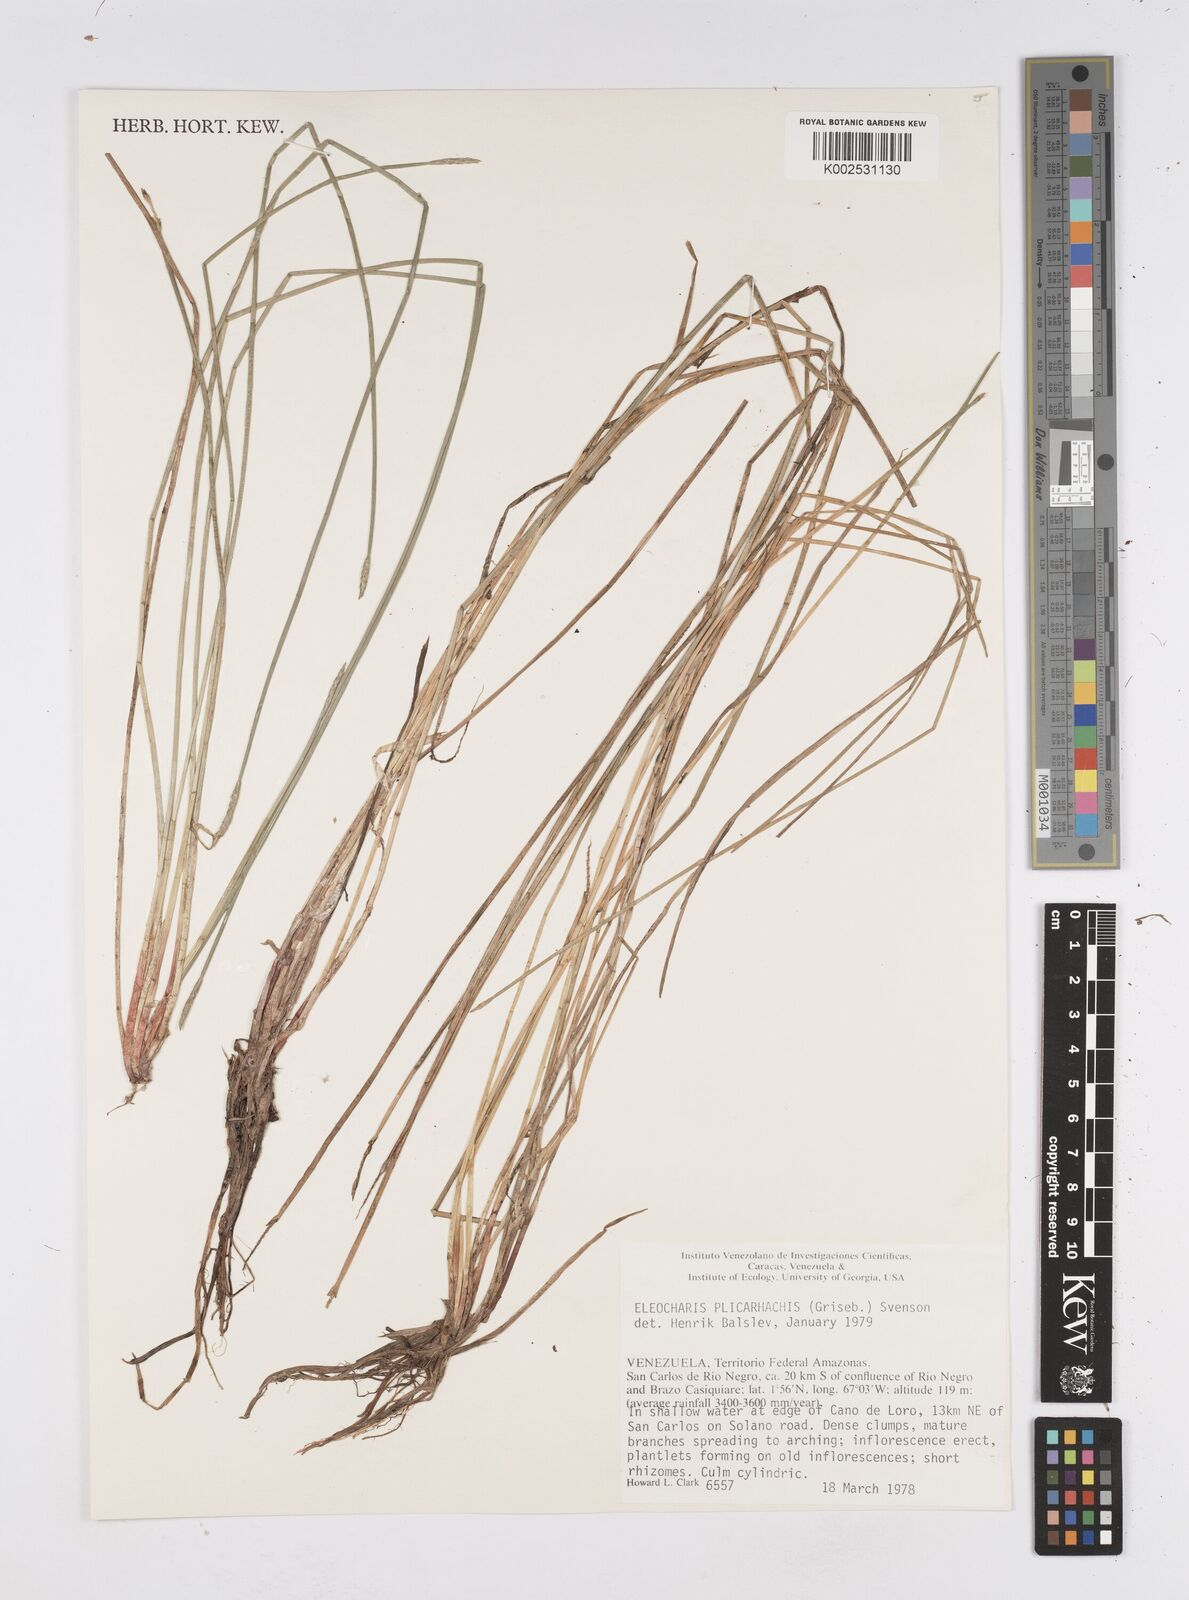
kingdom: Plantae
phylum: Tracheophyta
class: Liliopsida
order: Poales
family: Cyperaceae
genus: Eleocharis
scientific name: Eleocharis plicarhachis
